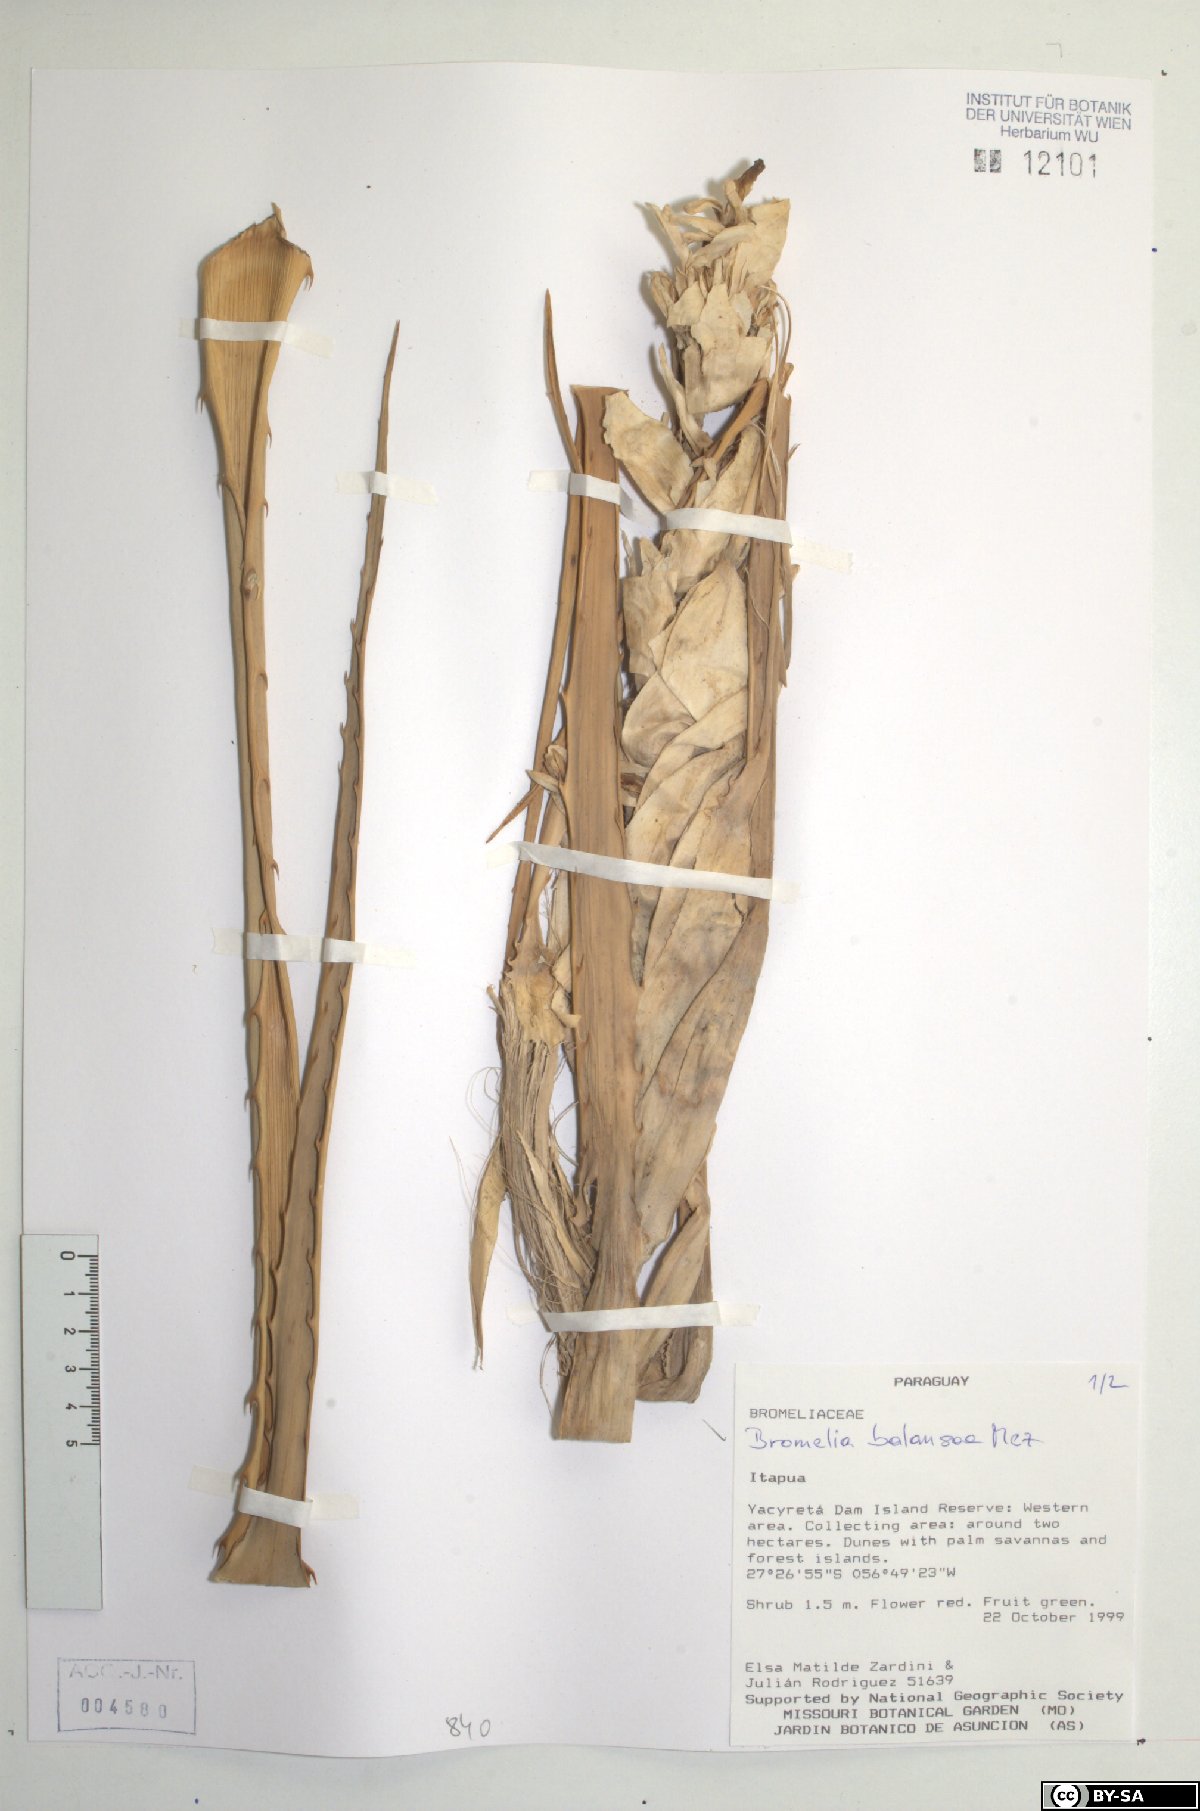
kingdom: Plantae
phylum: Tracheophyta
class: Liliopsida
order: Poales
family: Bromeliaceae
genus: Bromelia
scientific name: Bromelia balansae
